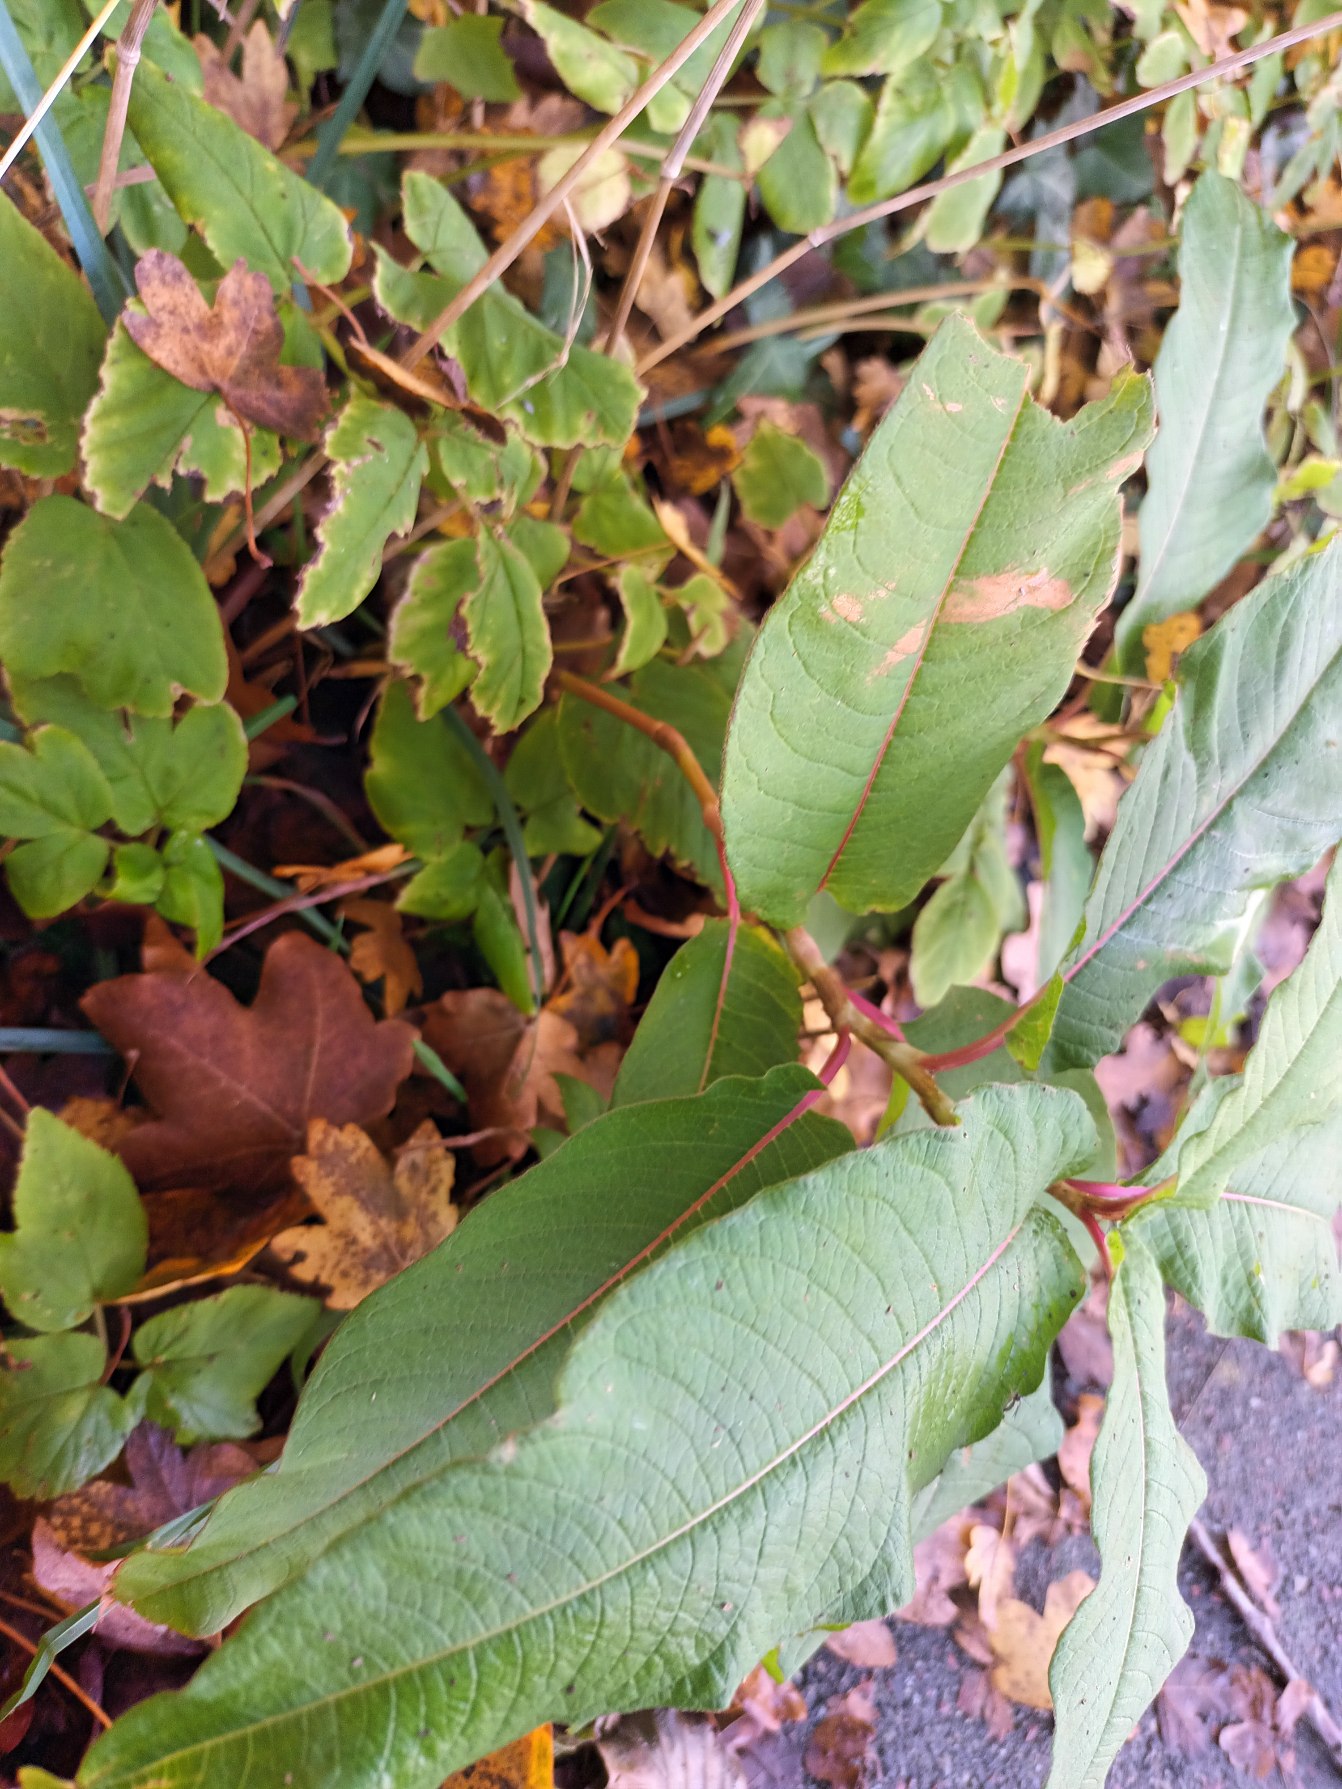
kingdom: Plantae
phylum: Tracheophyta
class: Magnoliopsida
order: Caryophyllales
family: Polygonaceae
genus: Koenigia
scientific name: Koenigia polystachya
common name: Syren-pileurt
